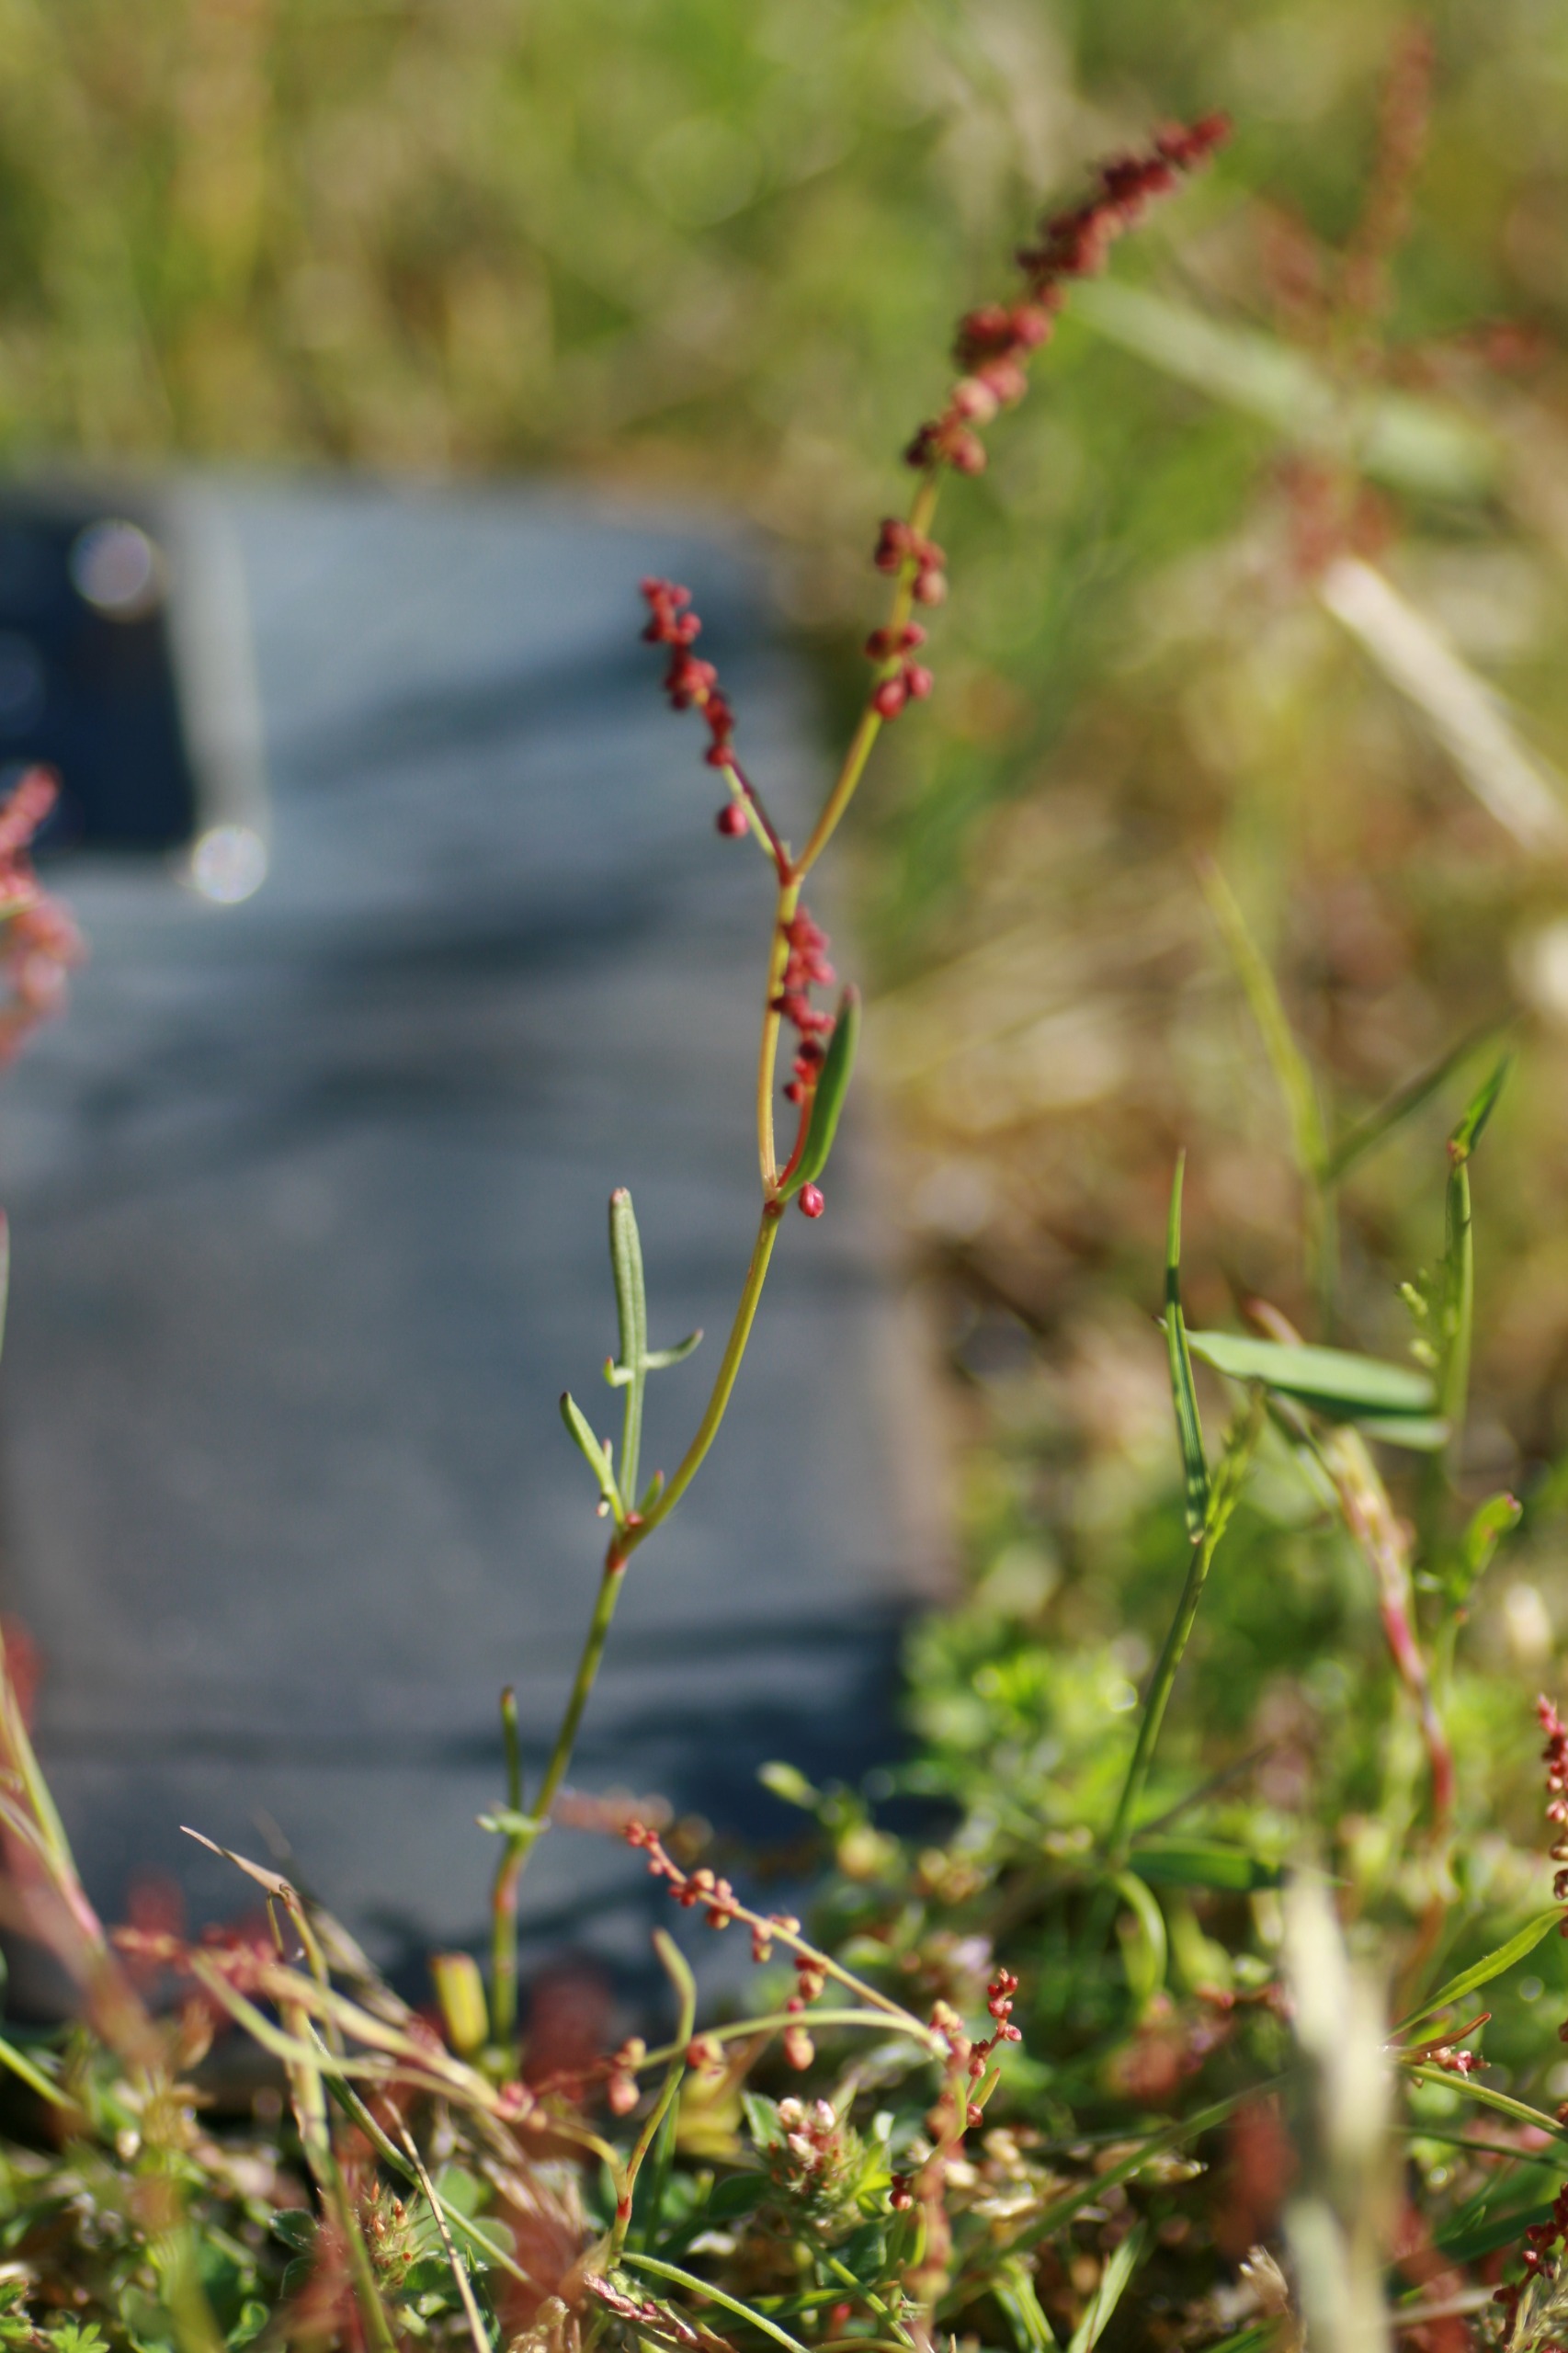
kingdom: Plantae
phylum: Tracheophyta
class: Magnoliopsida
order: Caryophyllales
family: Polygonaceae
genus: Rumex
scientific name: Rumex acetosella
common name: Rødknæ
